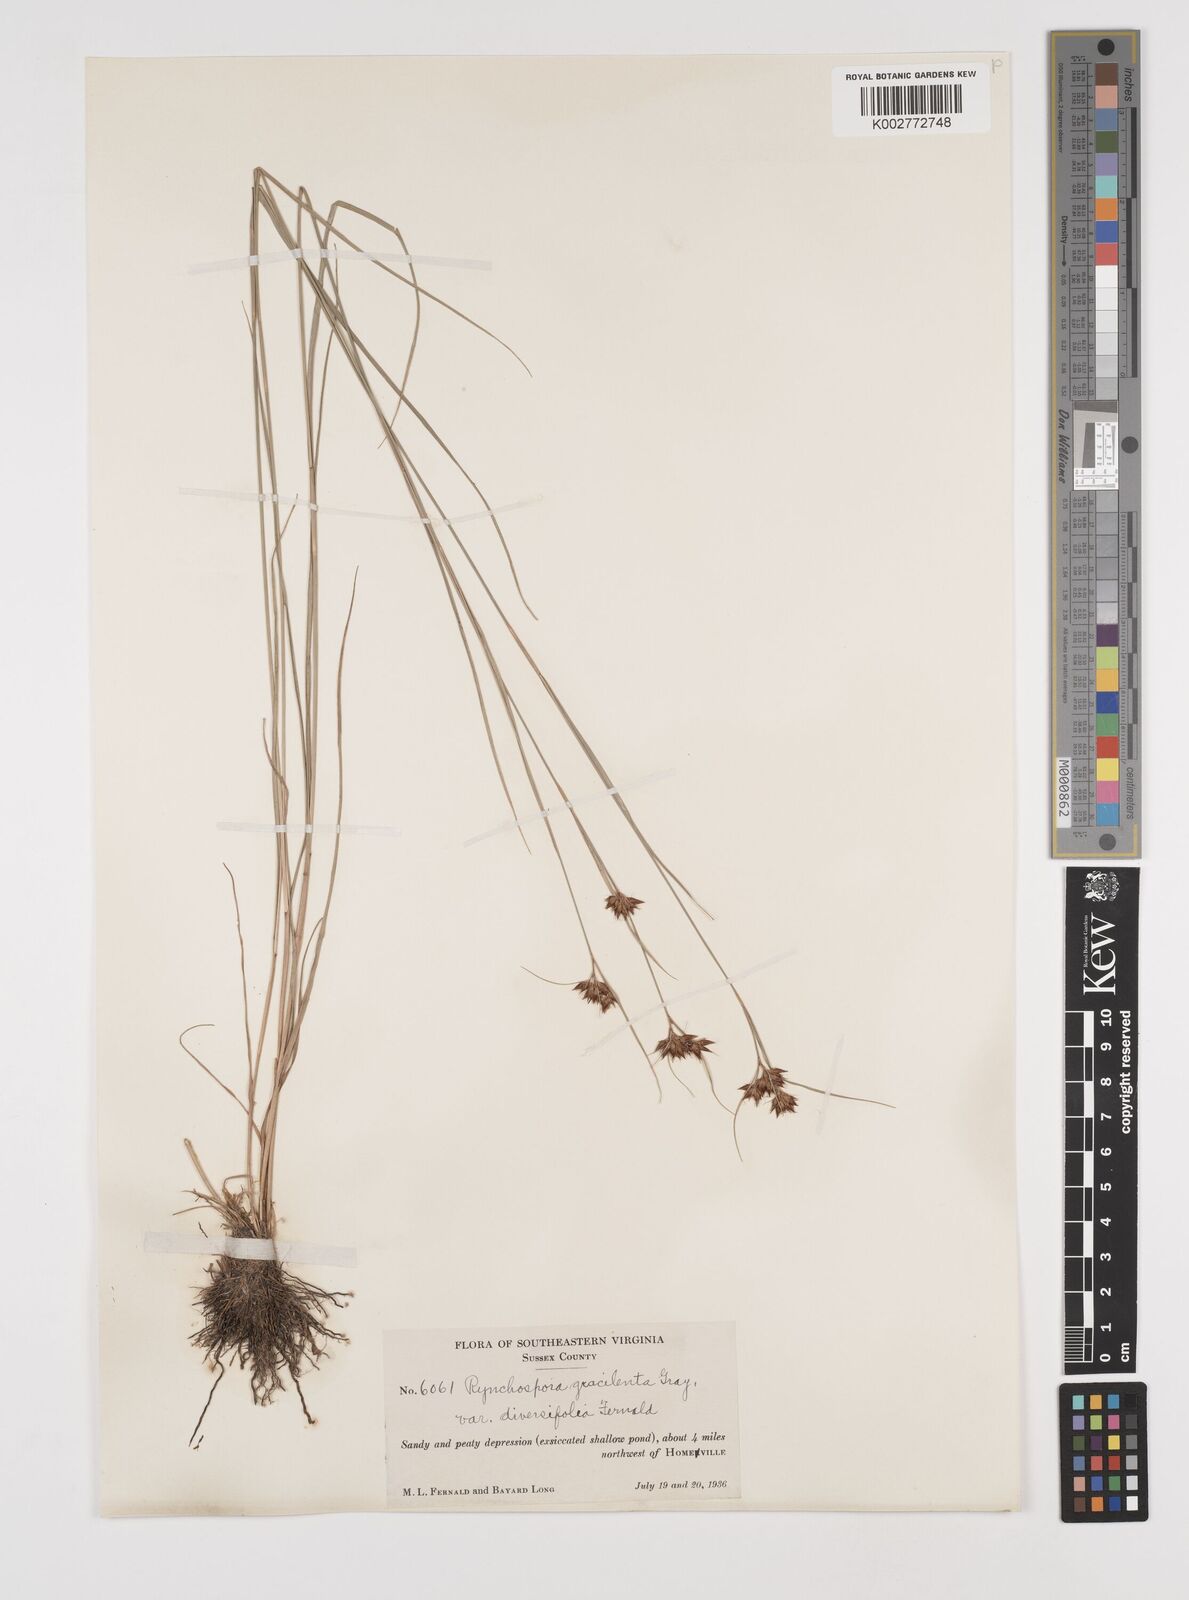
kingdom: Plantae
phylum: Tracheophyta
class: Liliopsida
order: Poales
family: Cyperaceae
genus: Rhynchospora
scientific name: Rhynchospora gracilenta
